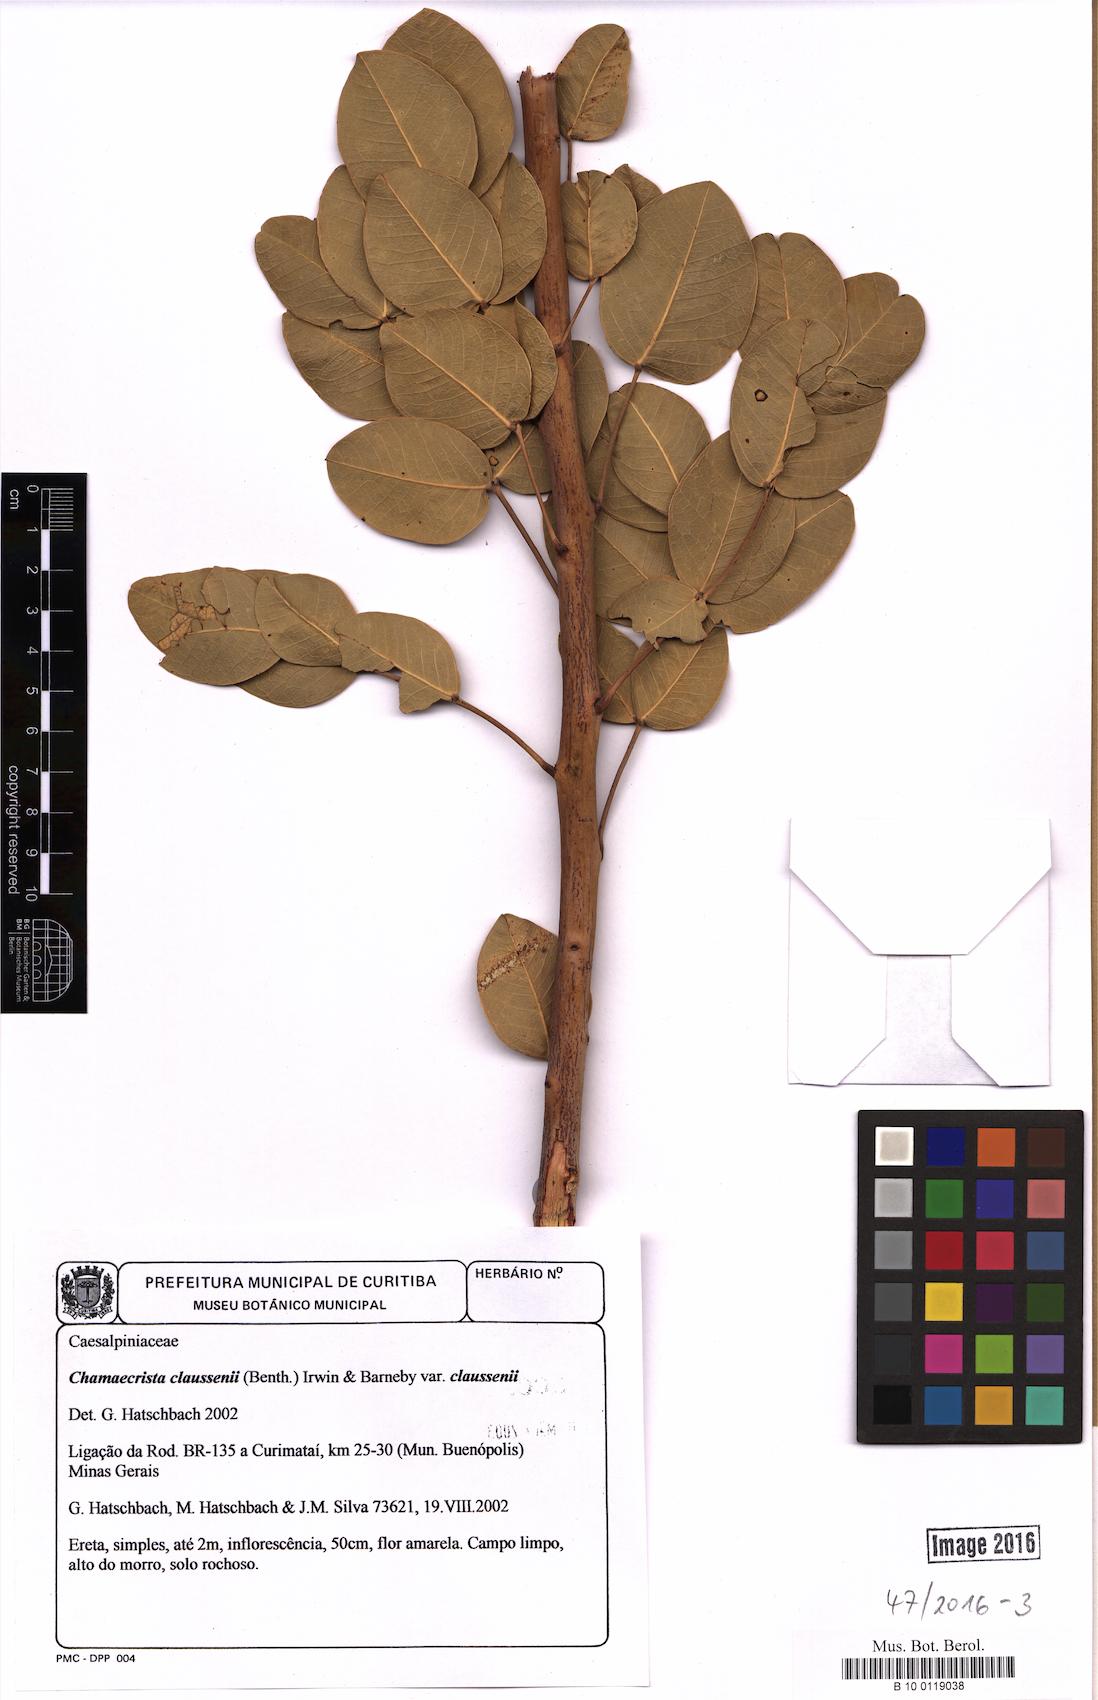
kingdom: Plantae
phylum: Tracheophyta
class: Magnoliopsida
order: Fabales
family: Fabaceae
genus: Chamaecrista
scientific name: Chamaecrista claussenii
